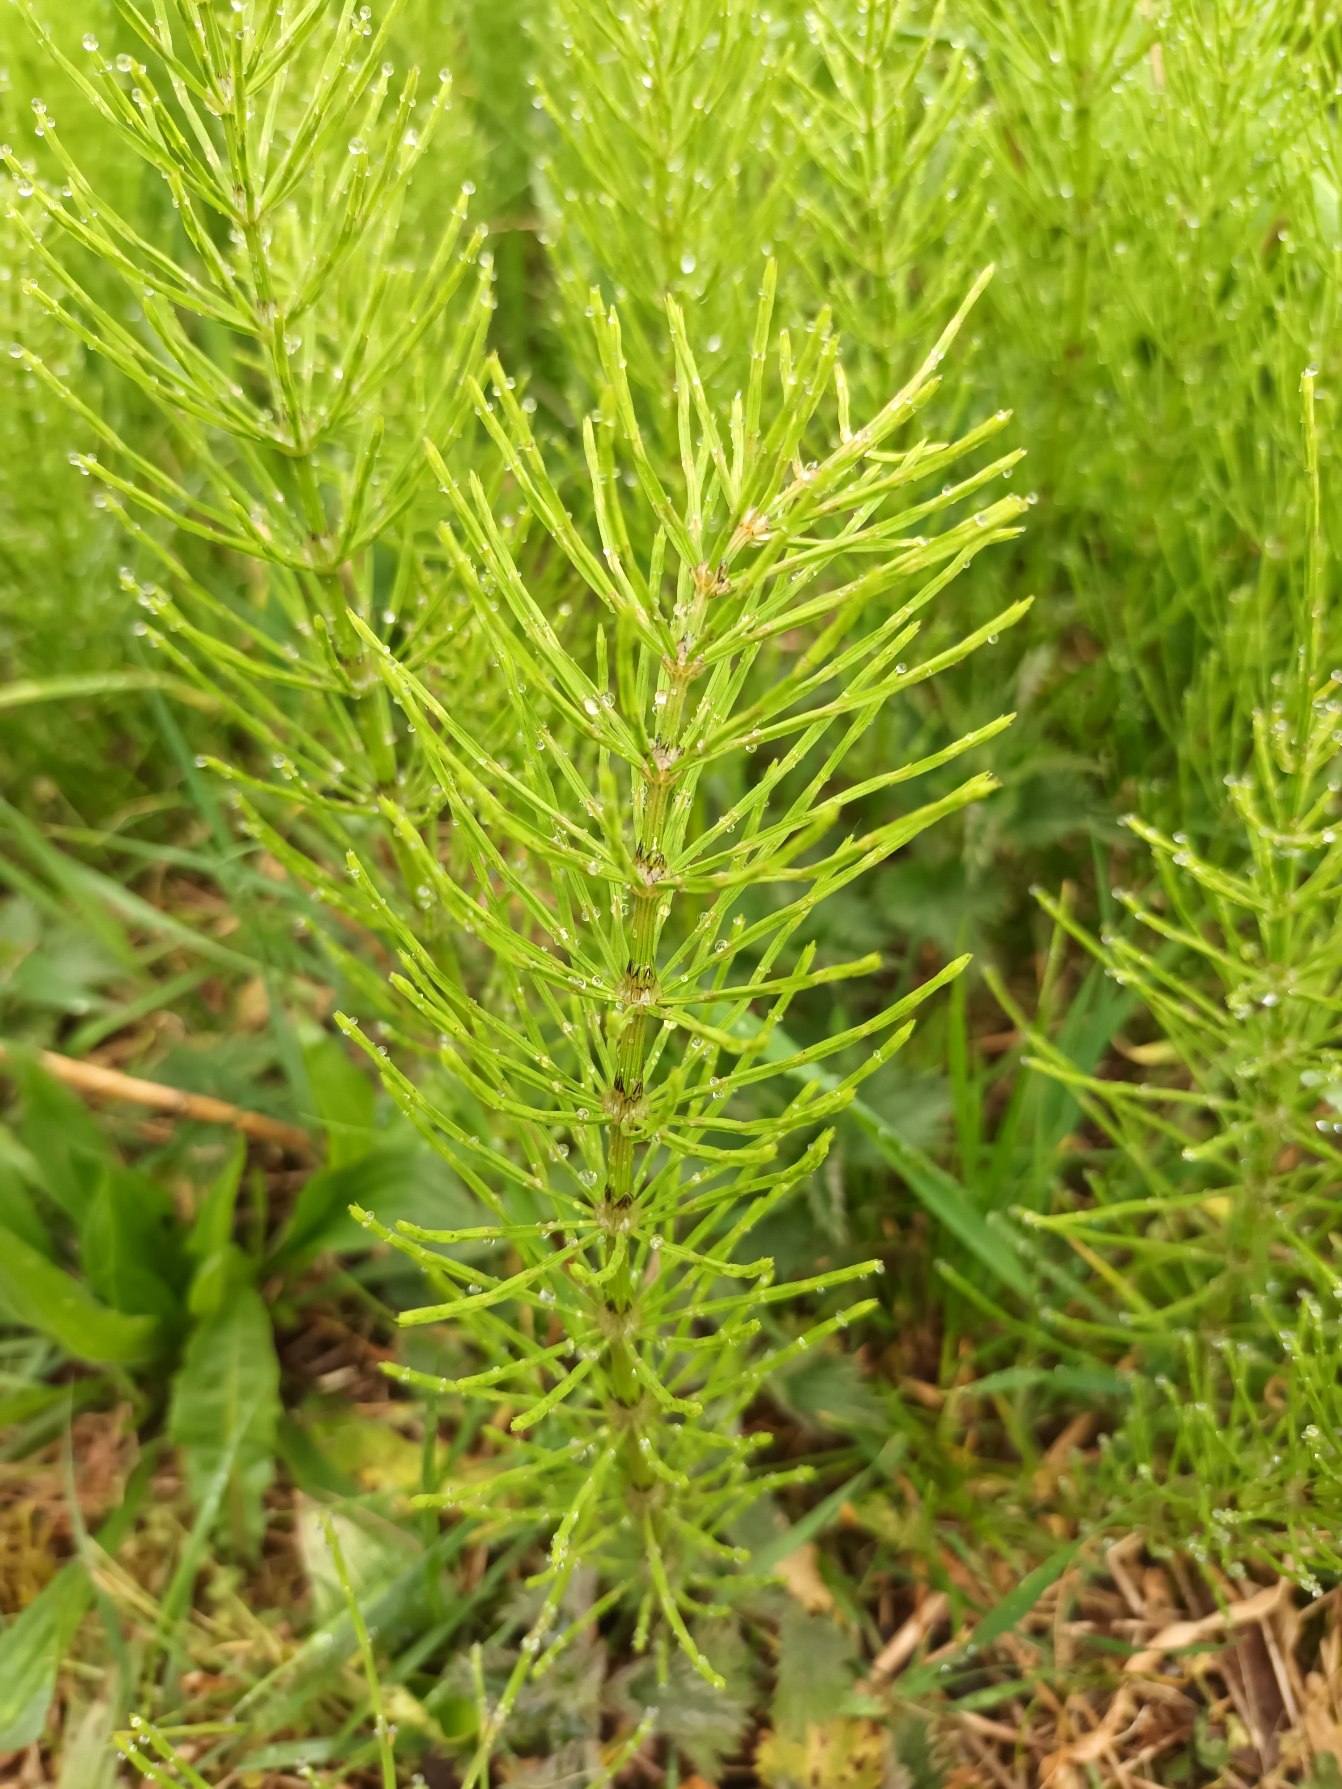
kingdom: Plantae
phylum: Tracheophyta
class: Polypodiopsida
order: Equisetales
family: Equisetaceae
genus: Equisetum
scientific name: Equisetum arvense
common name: Ager-padderok
